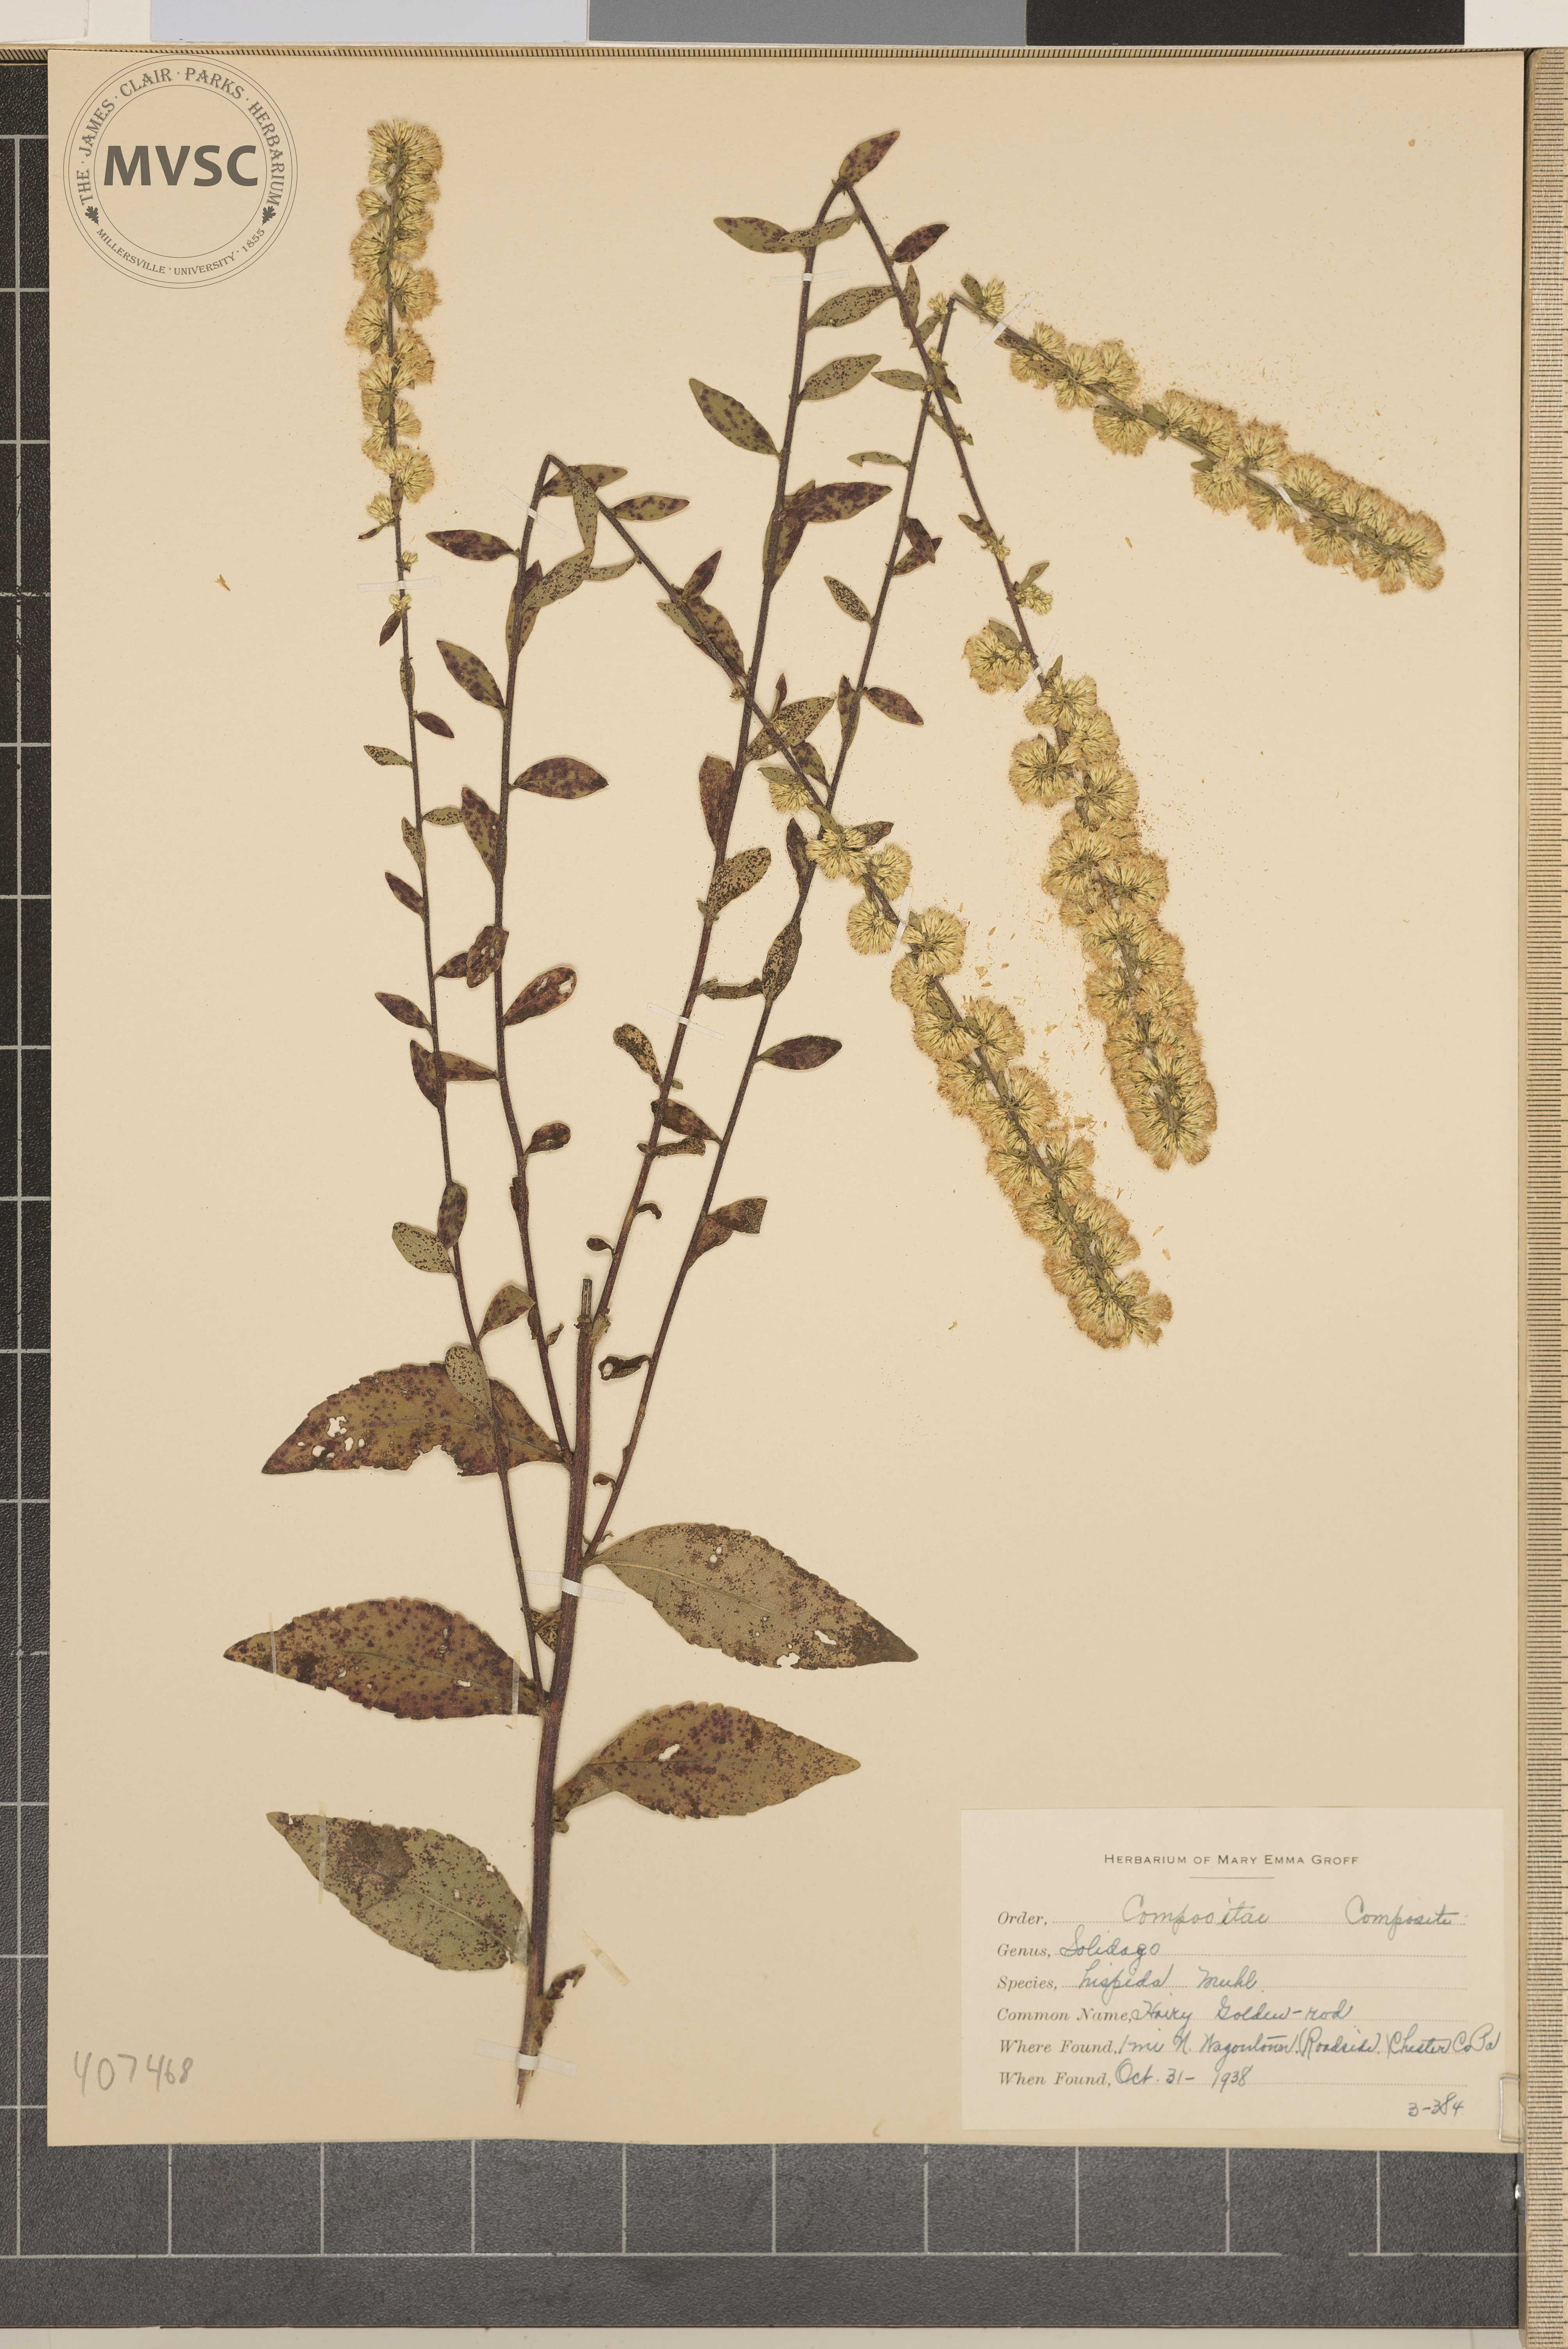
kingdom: Plantae
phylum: Tracheophyta
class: Magnoliopsida
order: Asterales
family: Asteraceae
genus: Solidago
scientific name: Solidago hispida
